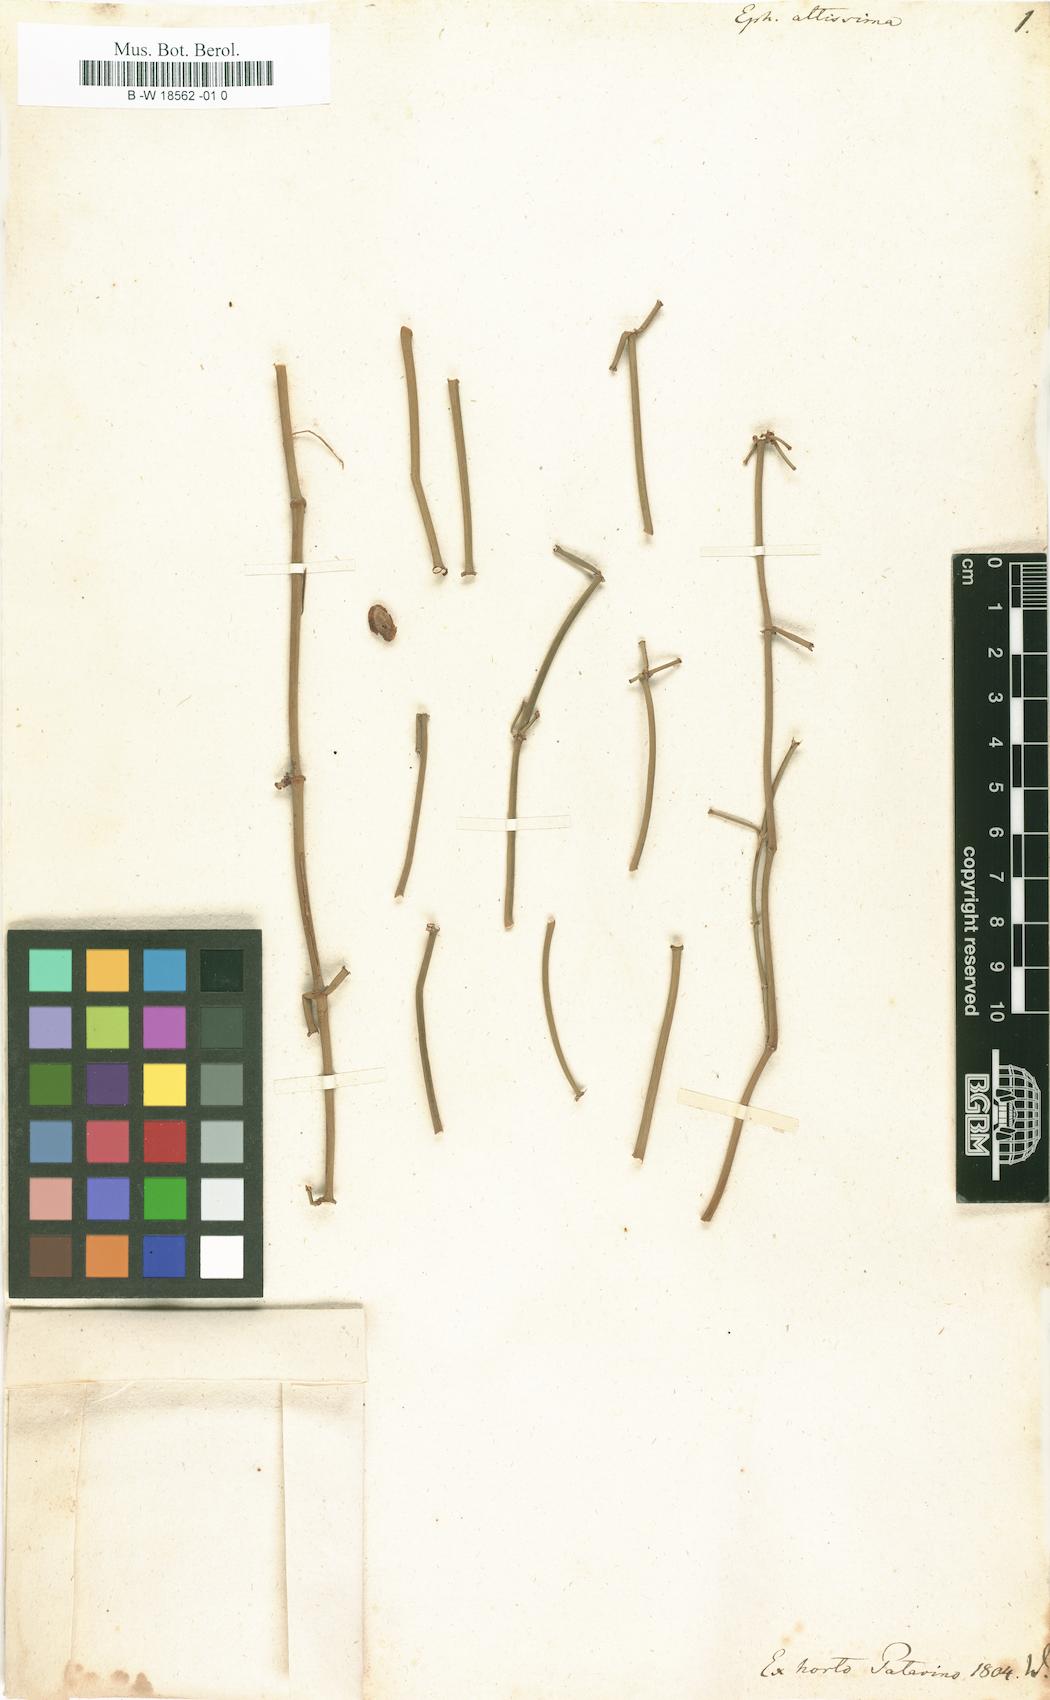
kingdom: Plantae
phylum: Tracheophyta
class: Gnetopsida
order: Ephedrales
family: Ephedraceae
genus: Ephedra
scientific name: Ephedra altissima
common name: High-climbing jointfir
